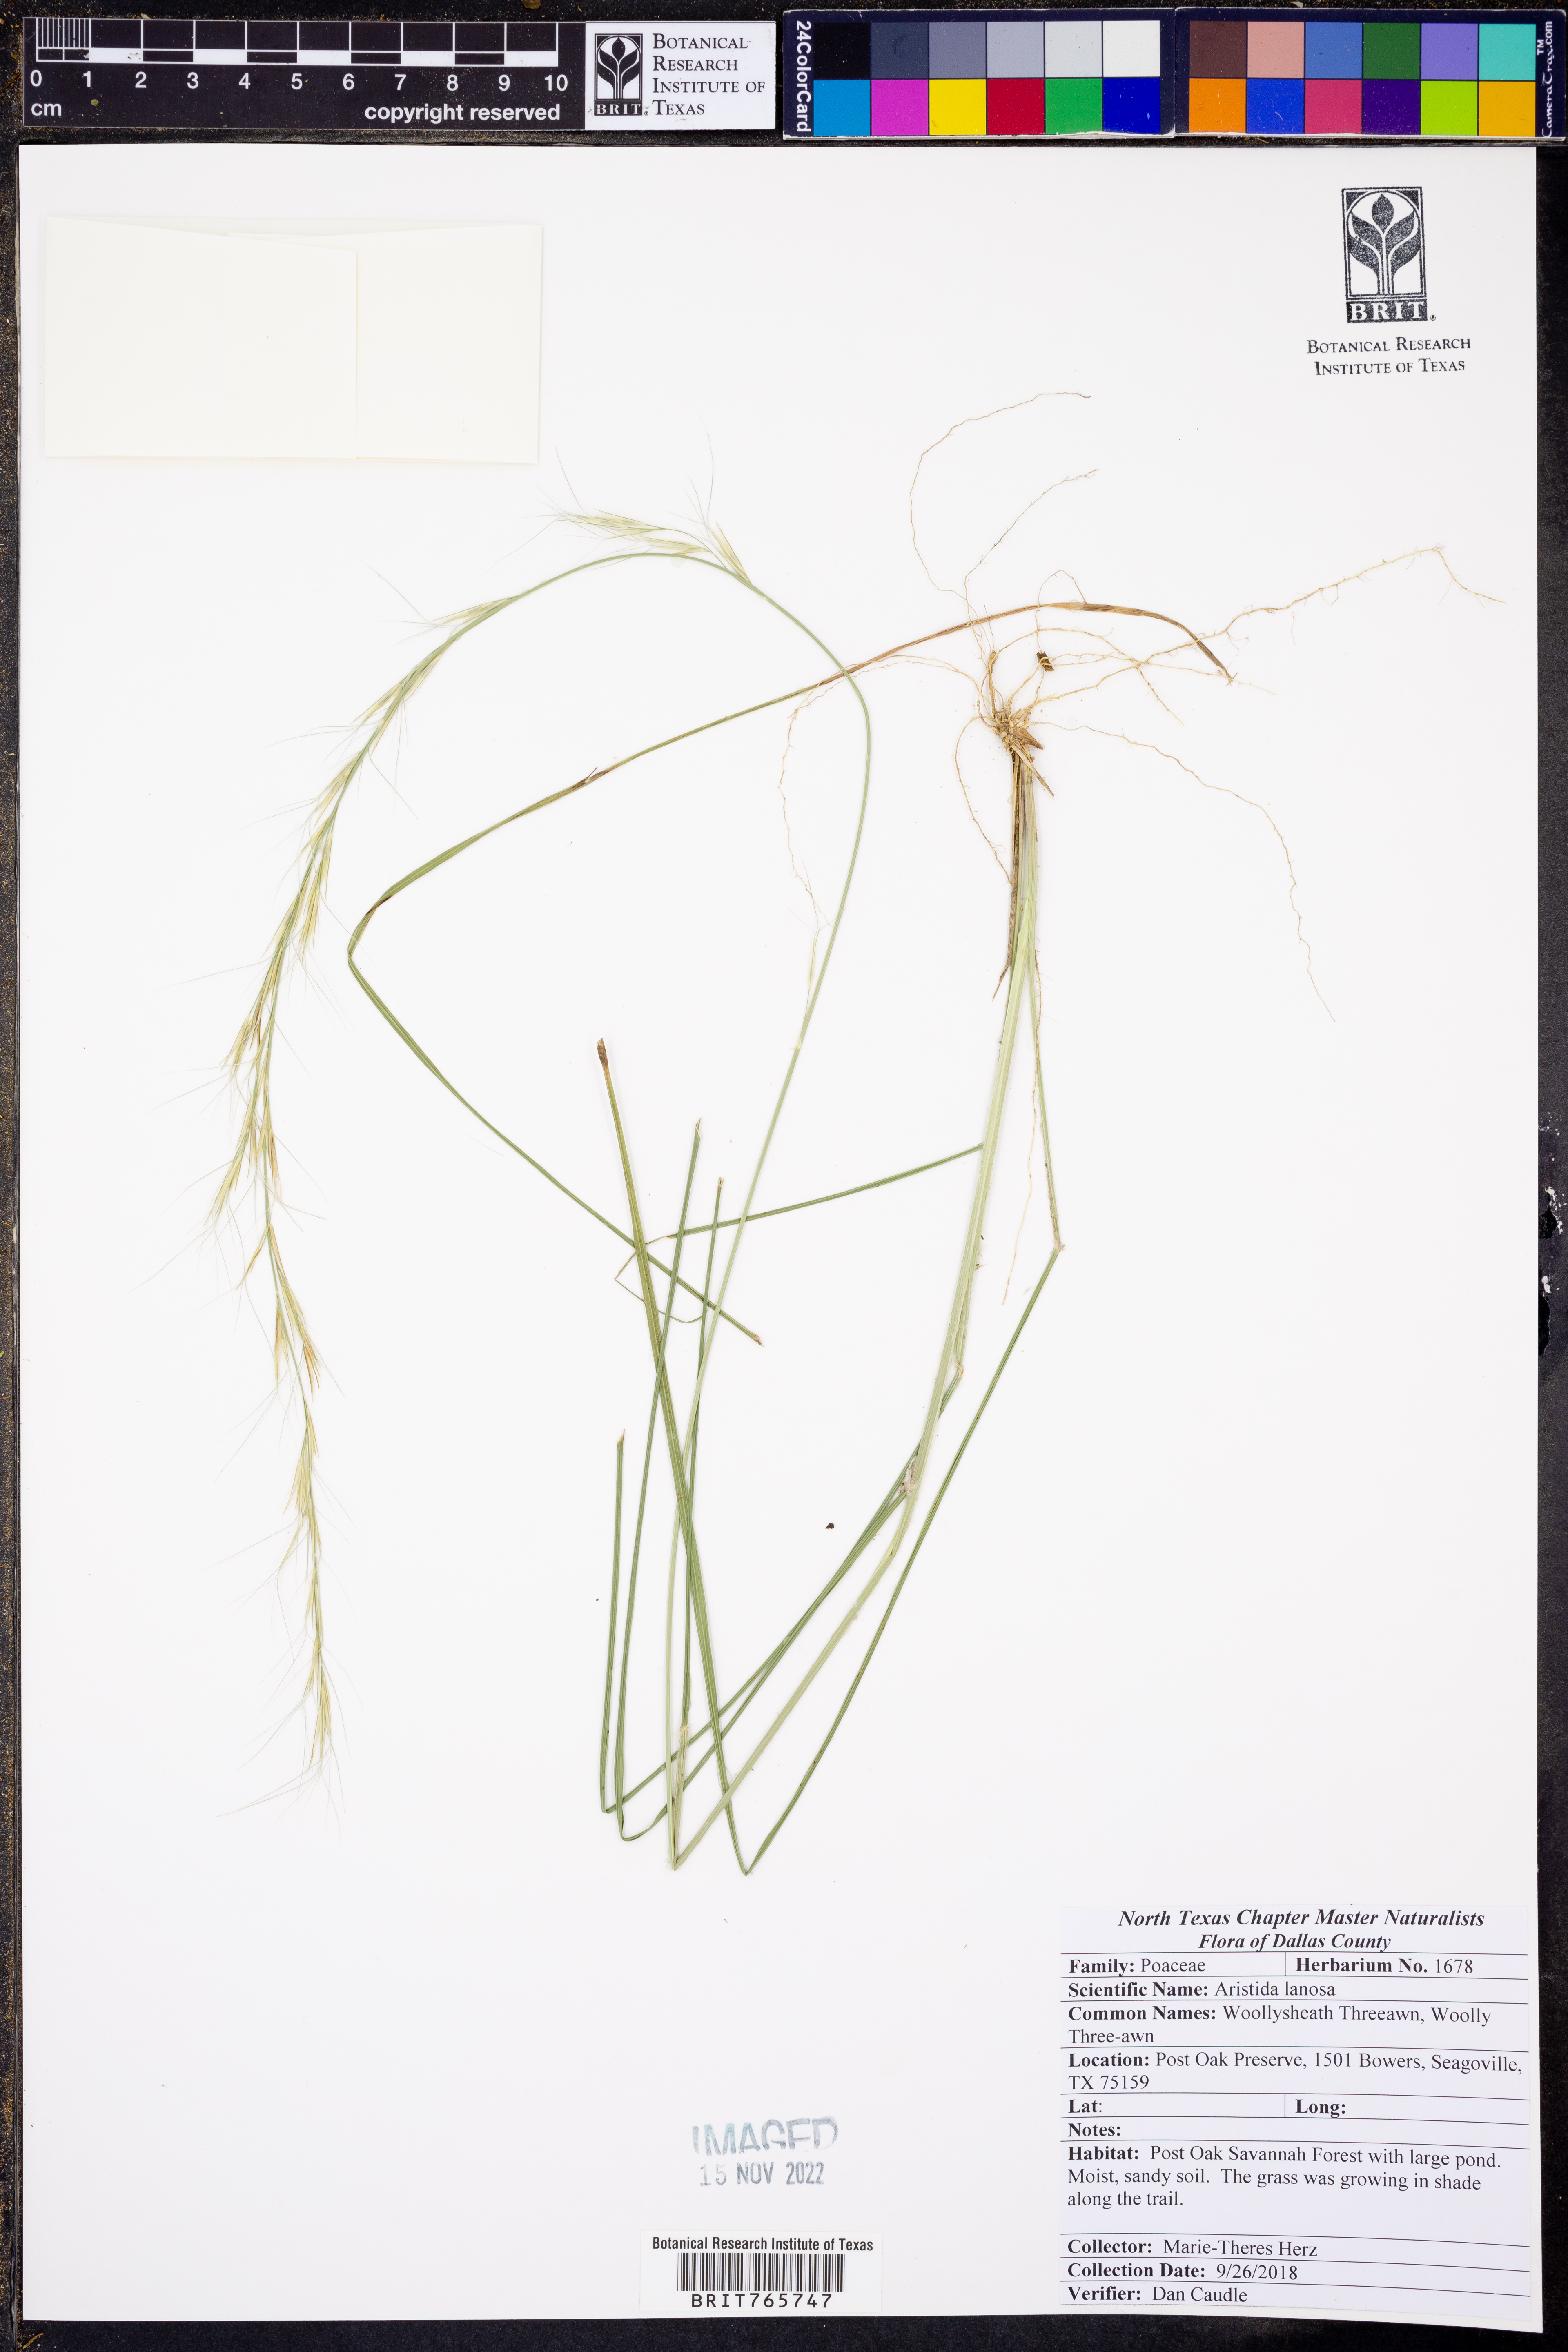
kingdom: Plantae
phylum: Tracheophyta
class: Liliopsida
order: Poales
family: Poaceae
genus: Aristida
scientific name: Aristida lanosa
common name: Woolly three-awn
